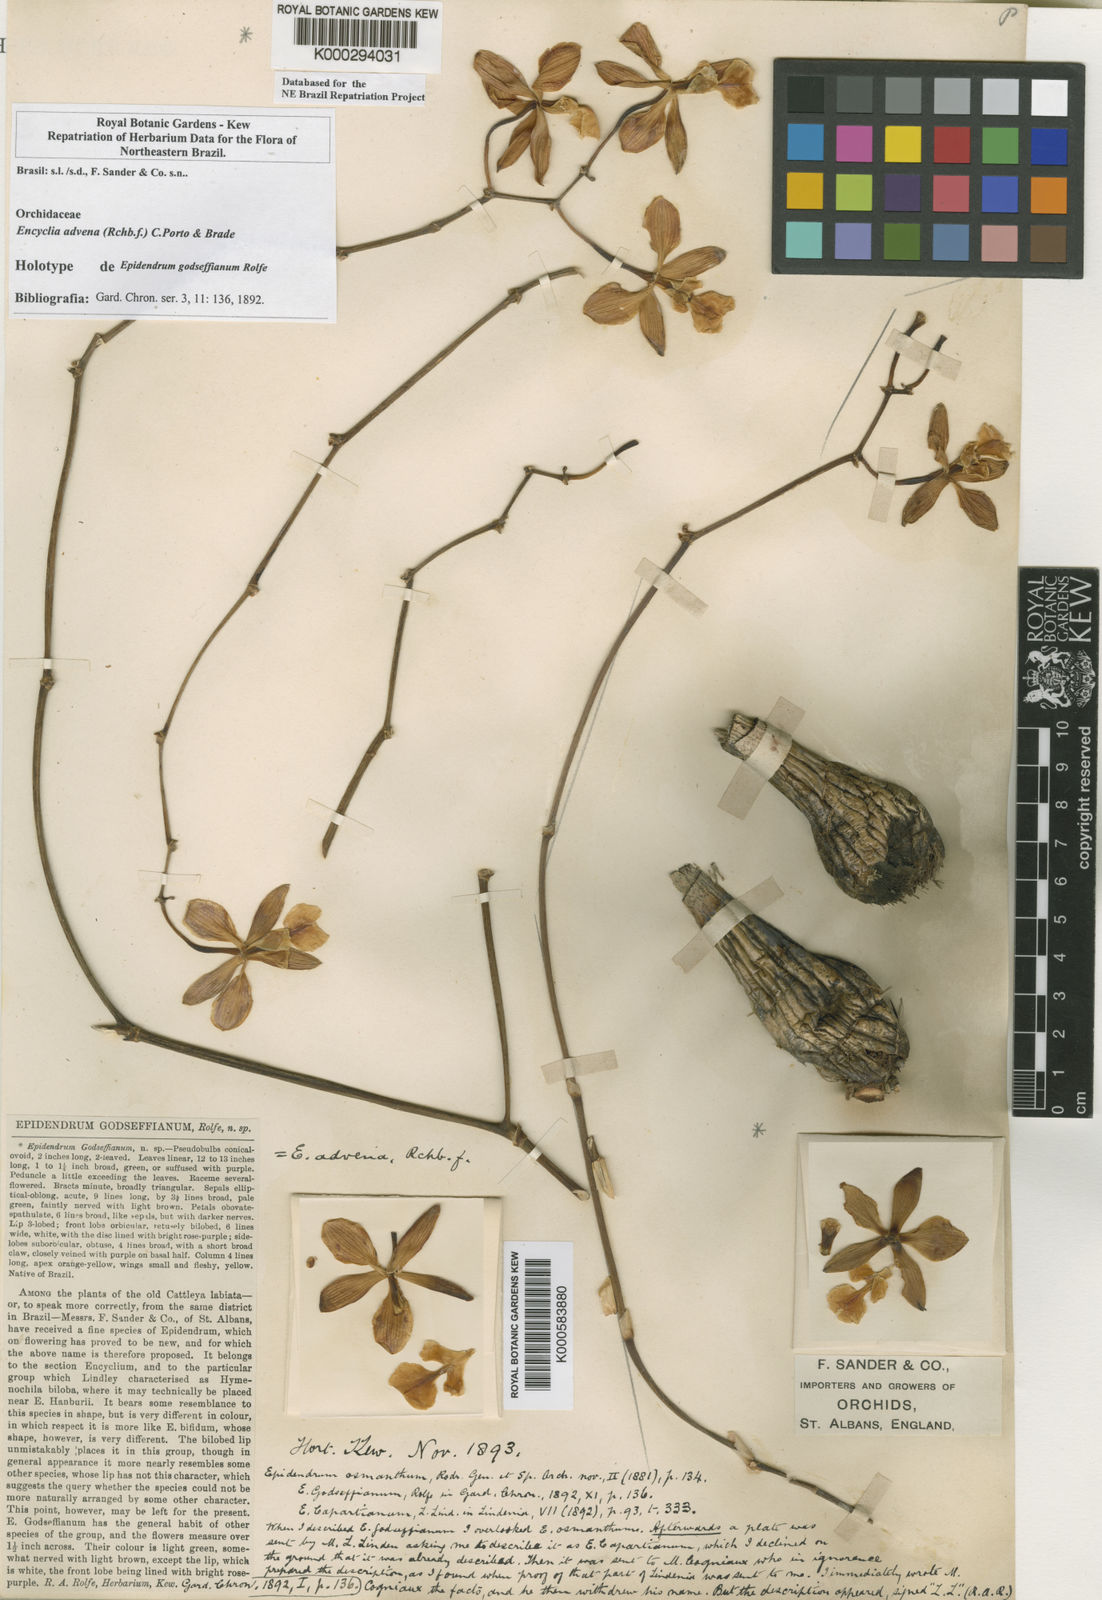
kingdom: Plantae
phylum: Tracheophyta
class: Liliopsida
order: Asparagales
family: Orchidaceae
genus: Encyclia
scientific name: Encyclia advena
